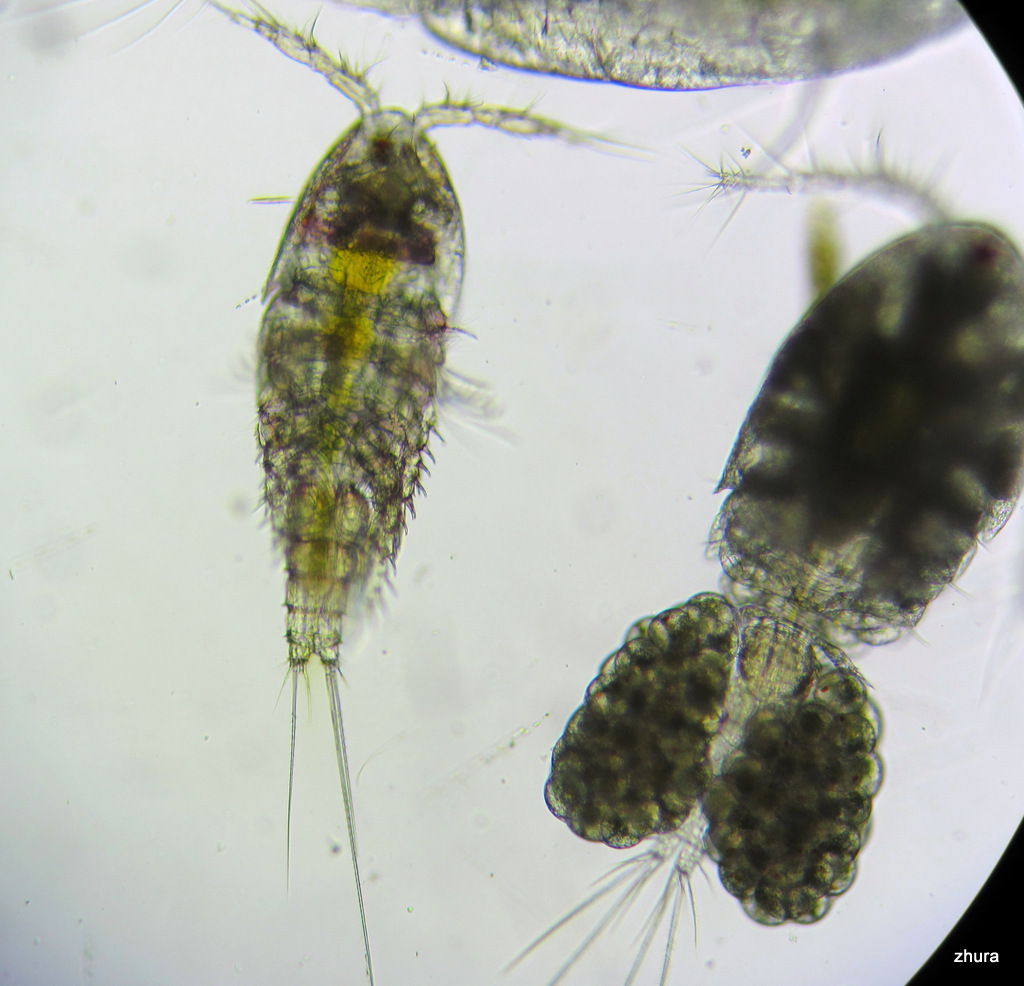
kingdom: Animalia
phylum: Arthropoda
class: Copepoda
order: Cyclopoida
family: Oncaeidae
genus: Oncaea
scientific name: Oncaea
